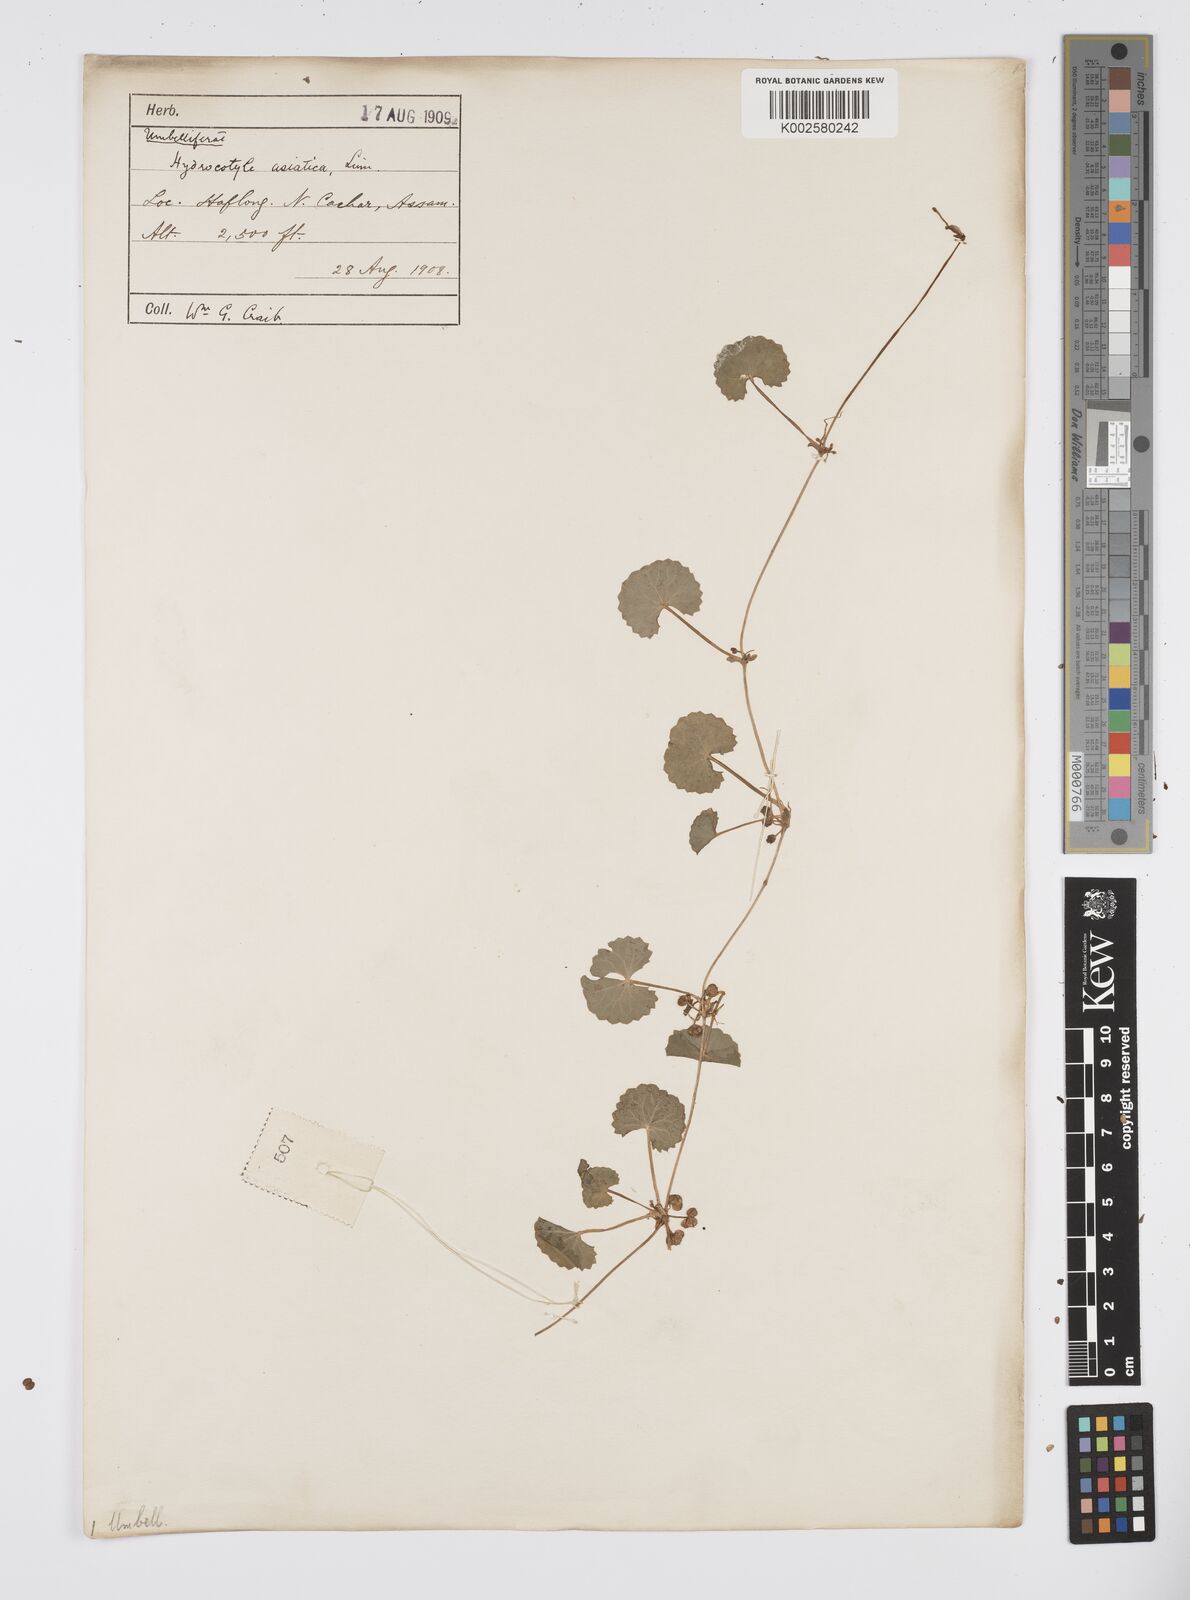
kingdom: Plantae
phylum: Tracheophyta
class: Magnoliopsida
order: Apiales
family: Apiaceae
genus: Centella
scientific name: Centella asiatica
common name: Spadeleaf
